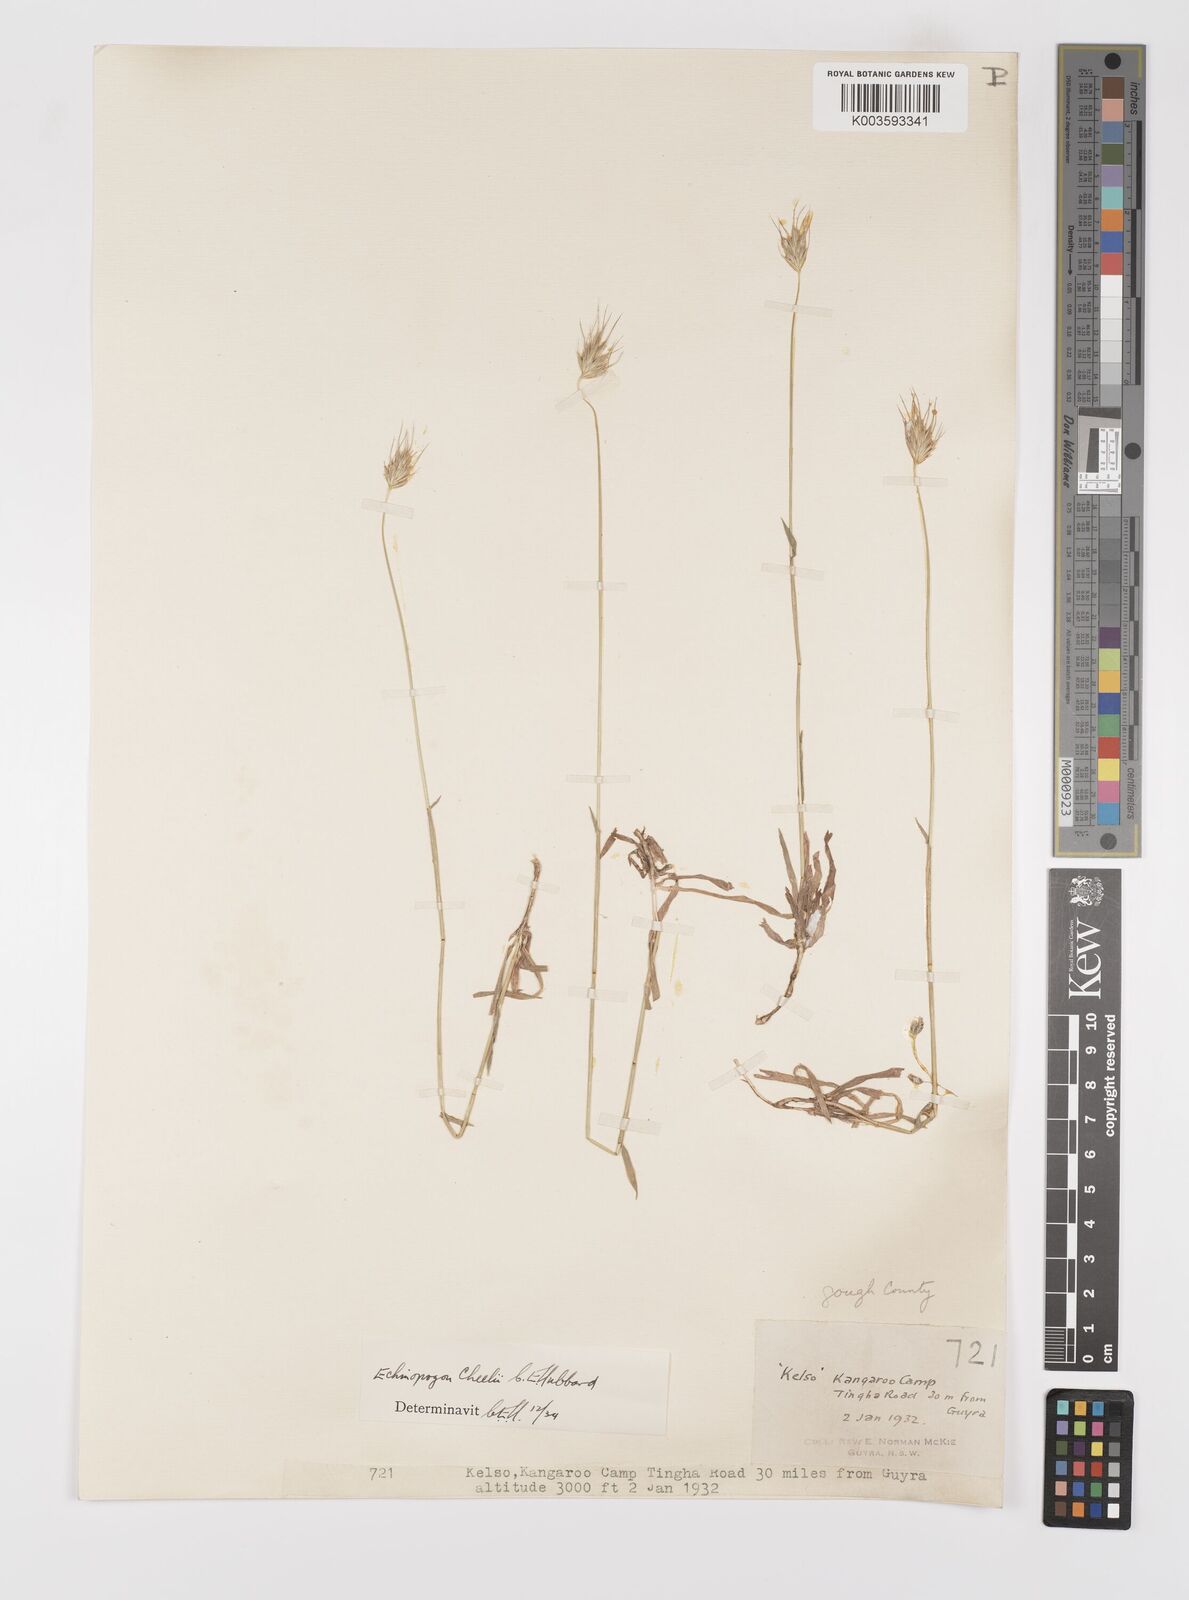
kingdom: Plantae
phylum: Tracheophyta
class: Liliopsida
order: Poales
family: Poaceae
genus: Echinopogon
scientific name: Echinopogon cheelii
